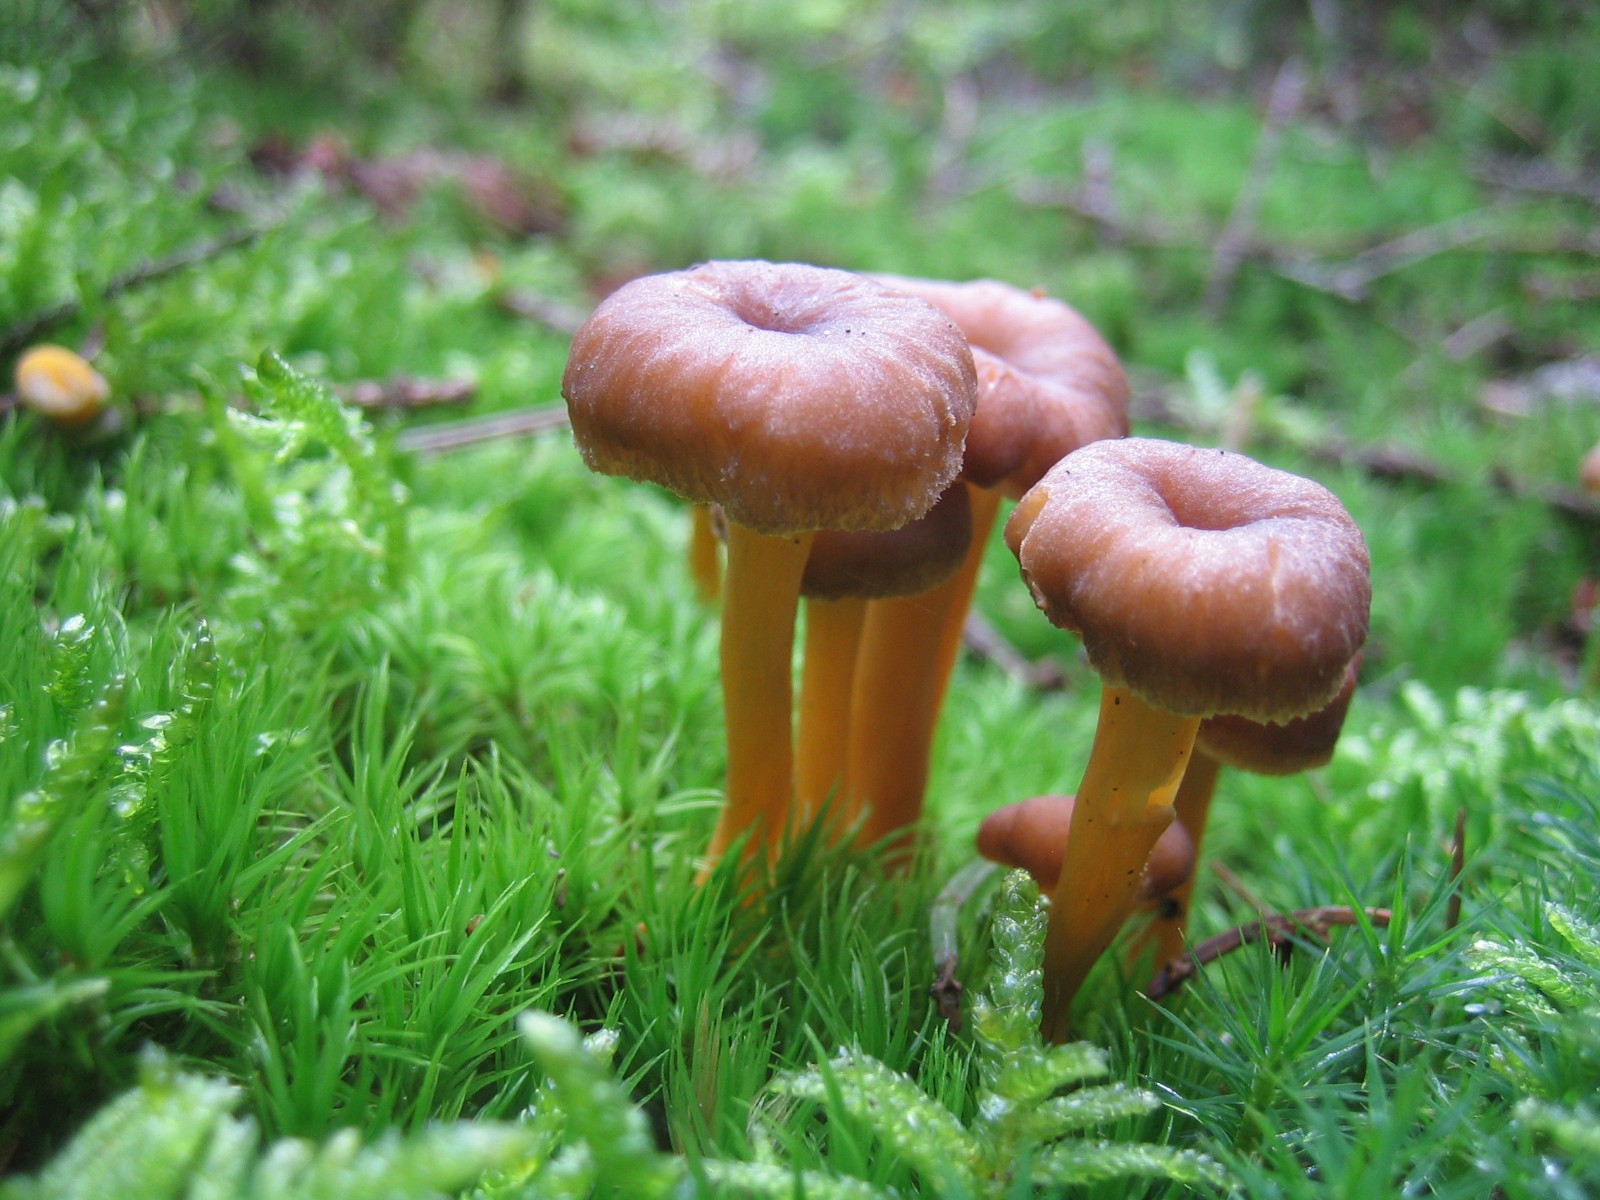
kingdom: Fungi
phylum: Basidiomycota
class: Agaricomycetes
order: Cantharellales
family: Hydnaceae
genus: Craterellus
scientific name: Craterellus tubaeformis
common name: tragt-kantarel
